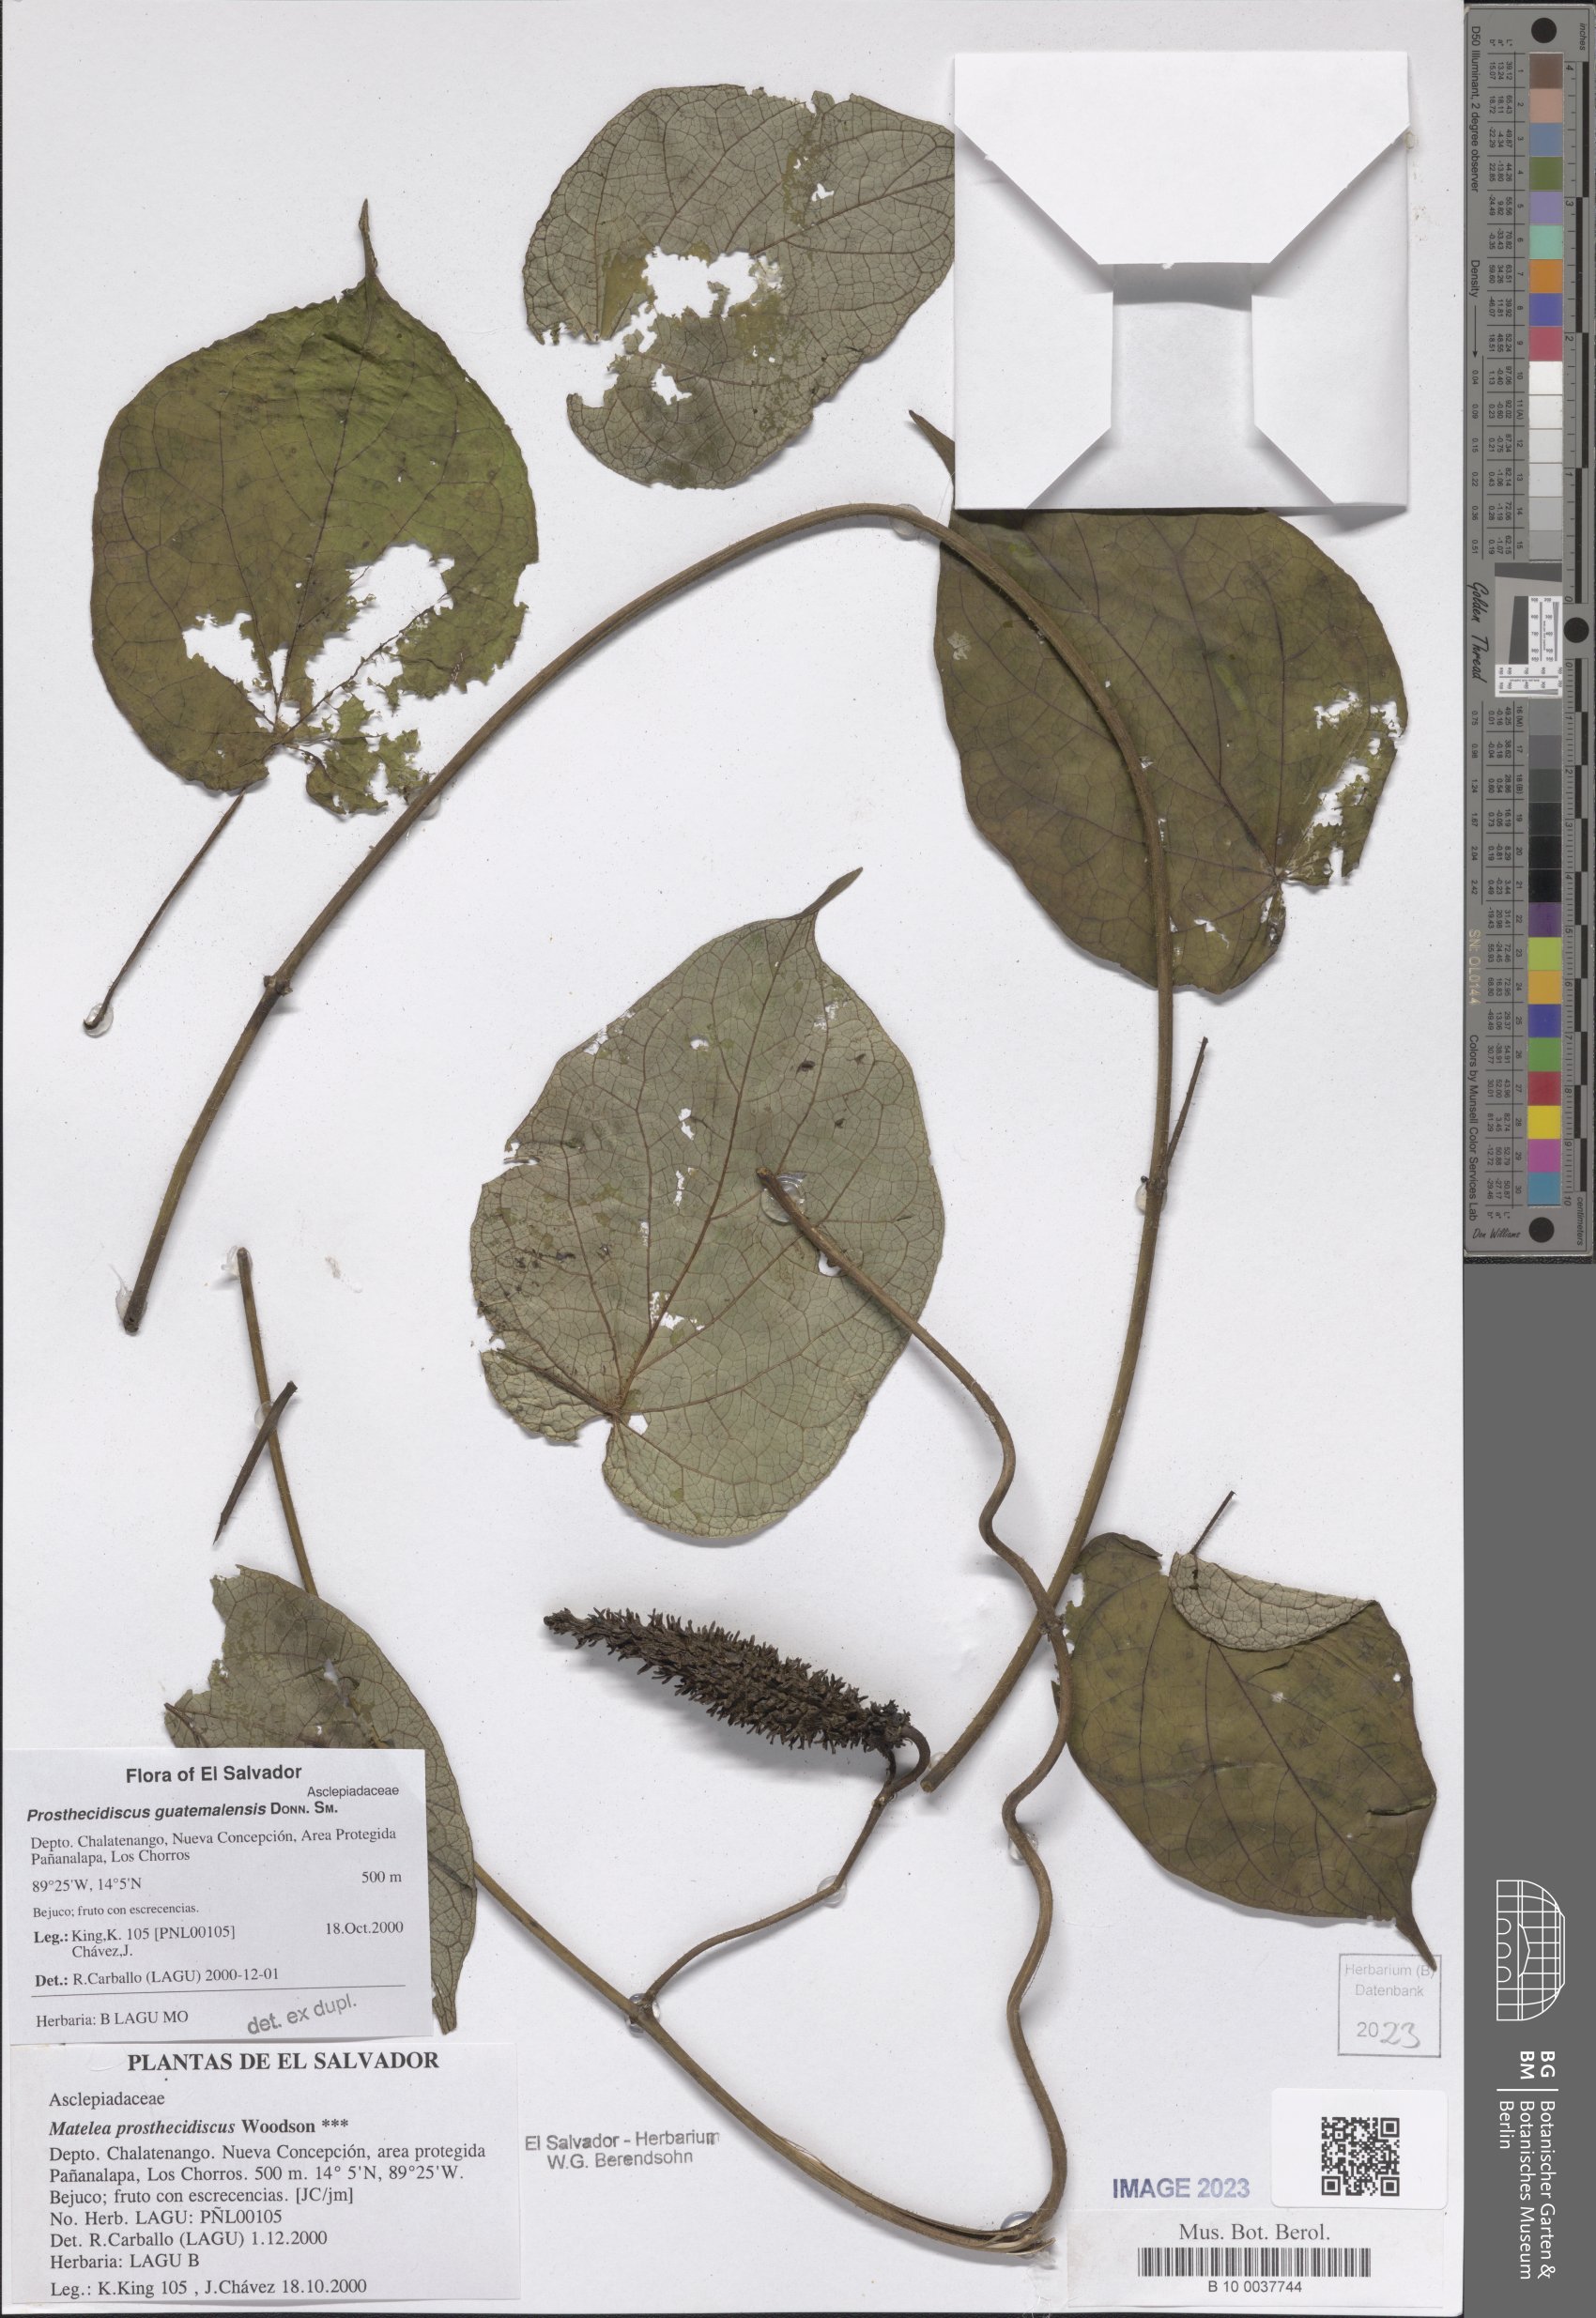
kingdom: Plantae
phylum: Tracheophyta
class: Magnoliopsida
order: Gentianales
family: Apocynaceae
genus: Matelea
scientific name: Matelea prosthecidiscus
